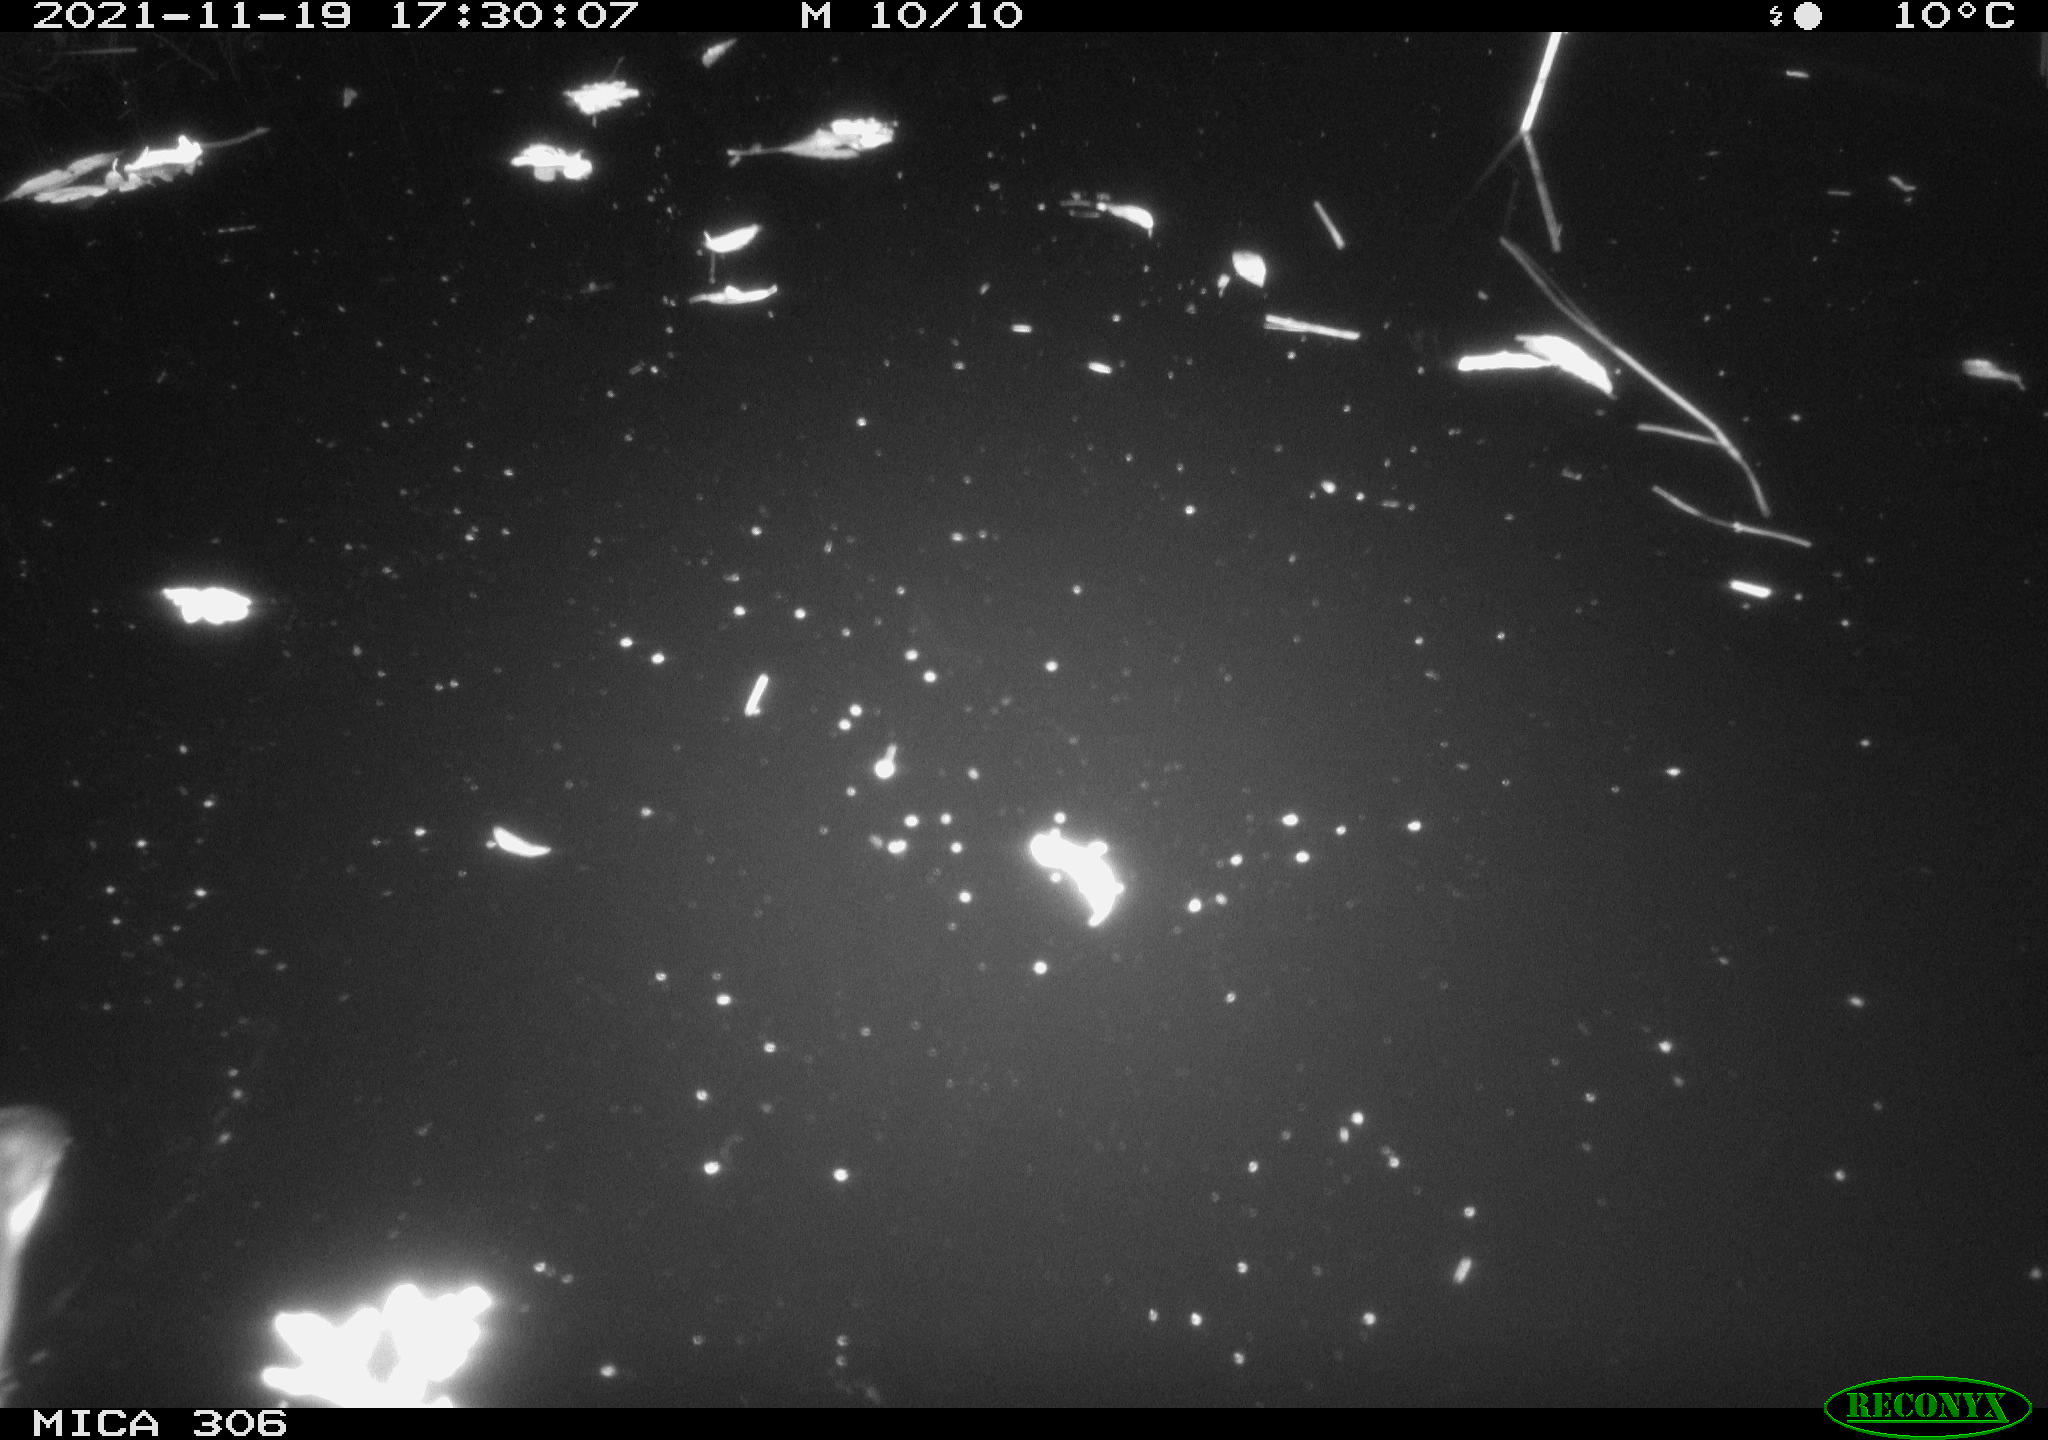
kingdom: Animalia
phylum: Chordata
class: Aves
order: Gruiformes
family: Rallidae
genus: Fulica
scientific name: Fulica atra
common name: Eurasian coot
